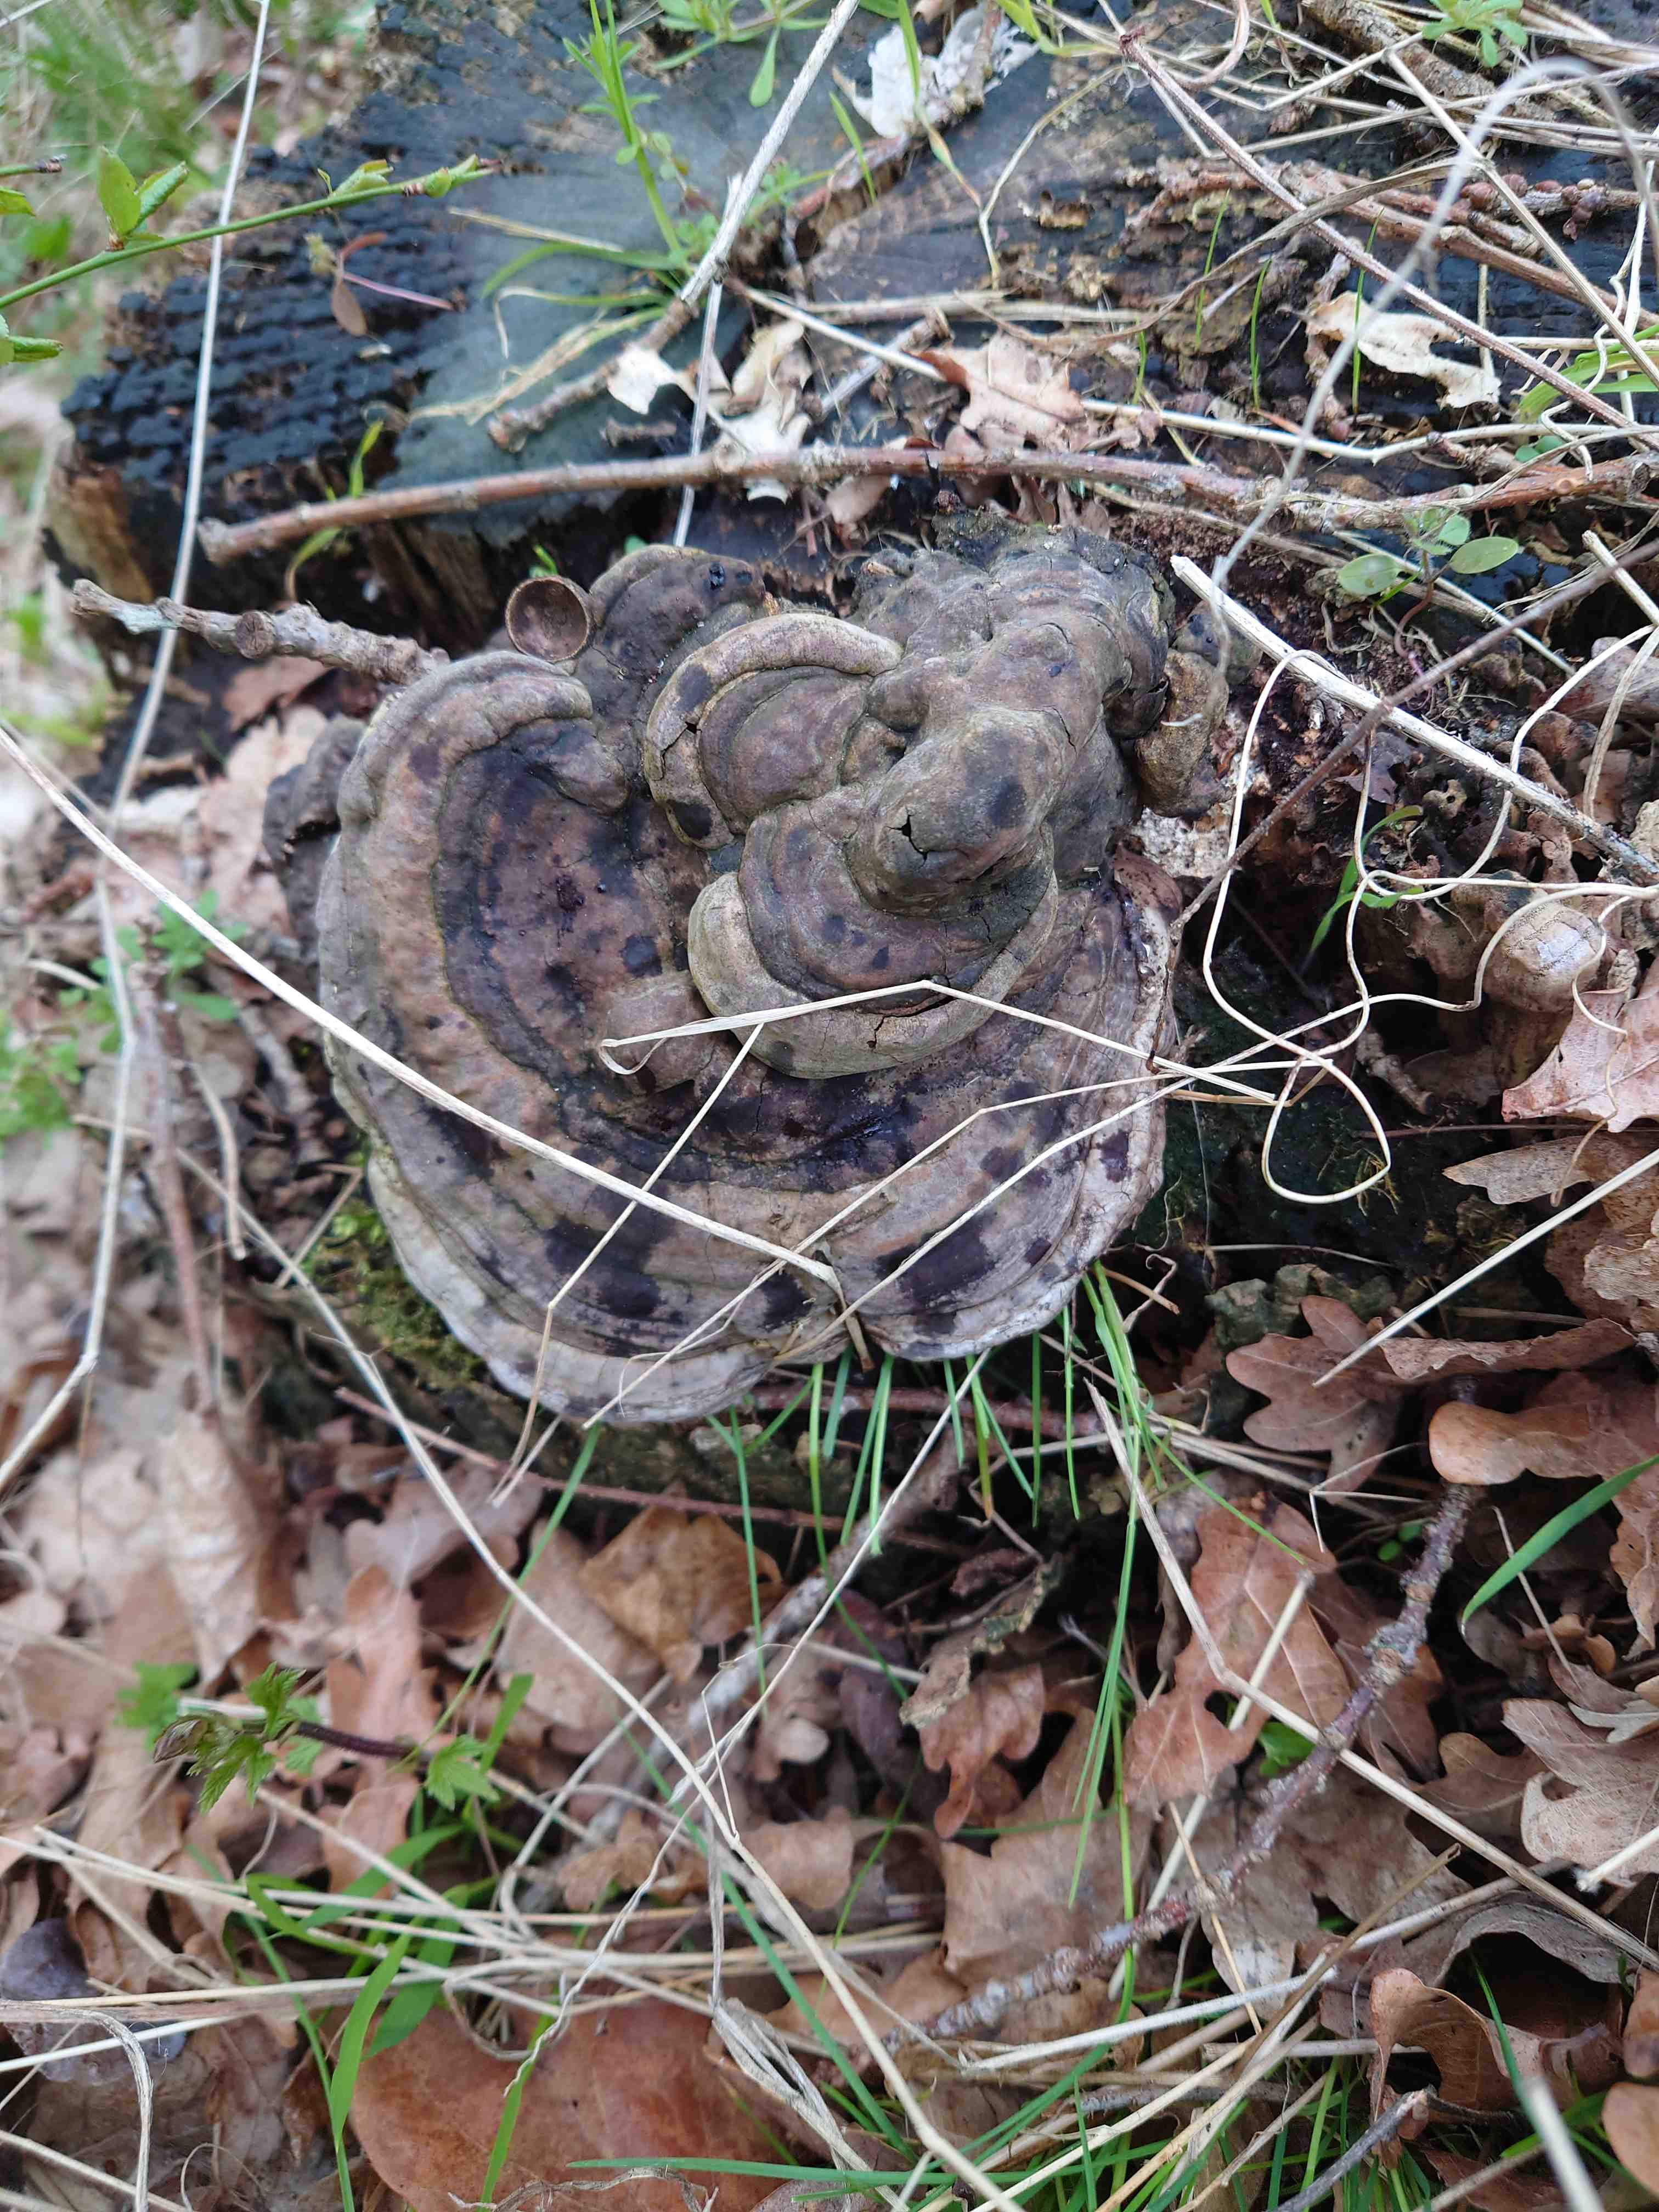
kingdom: Fungi
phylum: Basidiomycota
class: Agaricomycetes
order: Polyporales
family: Polyporaceae
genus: Ganoderma
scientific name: Ganoderma applanatum
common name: flad lakporesvamp
